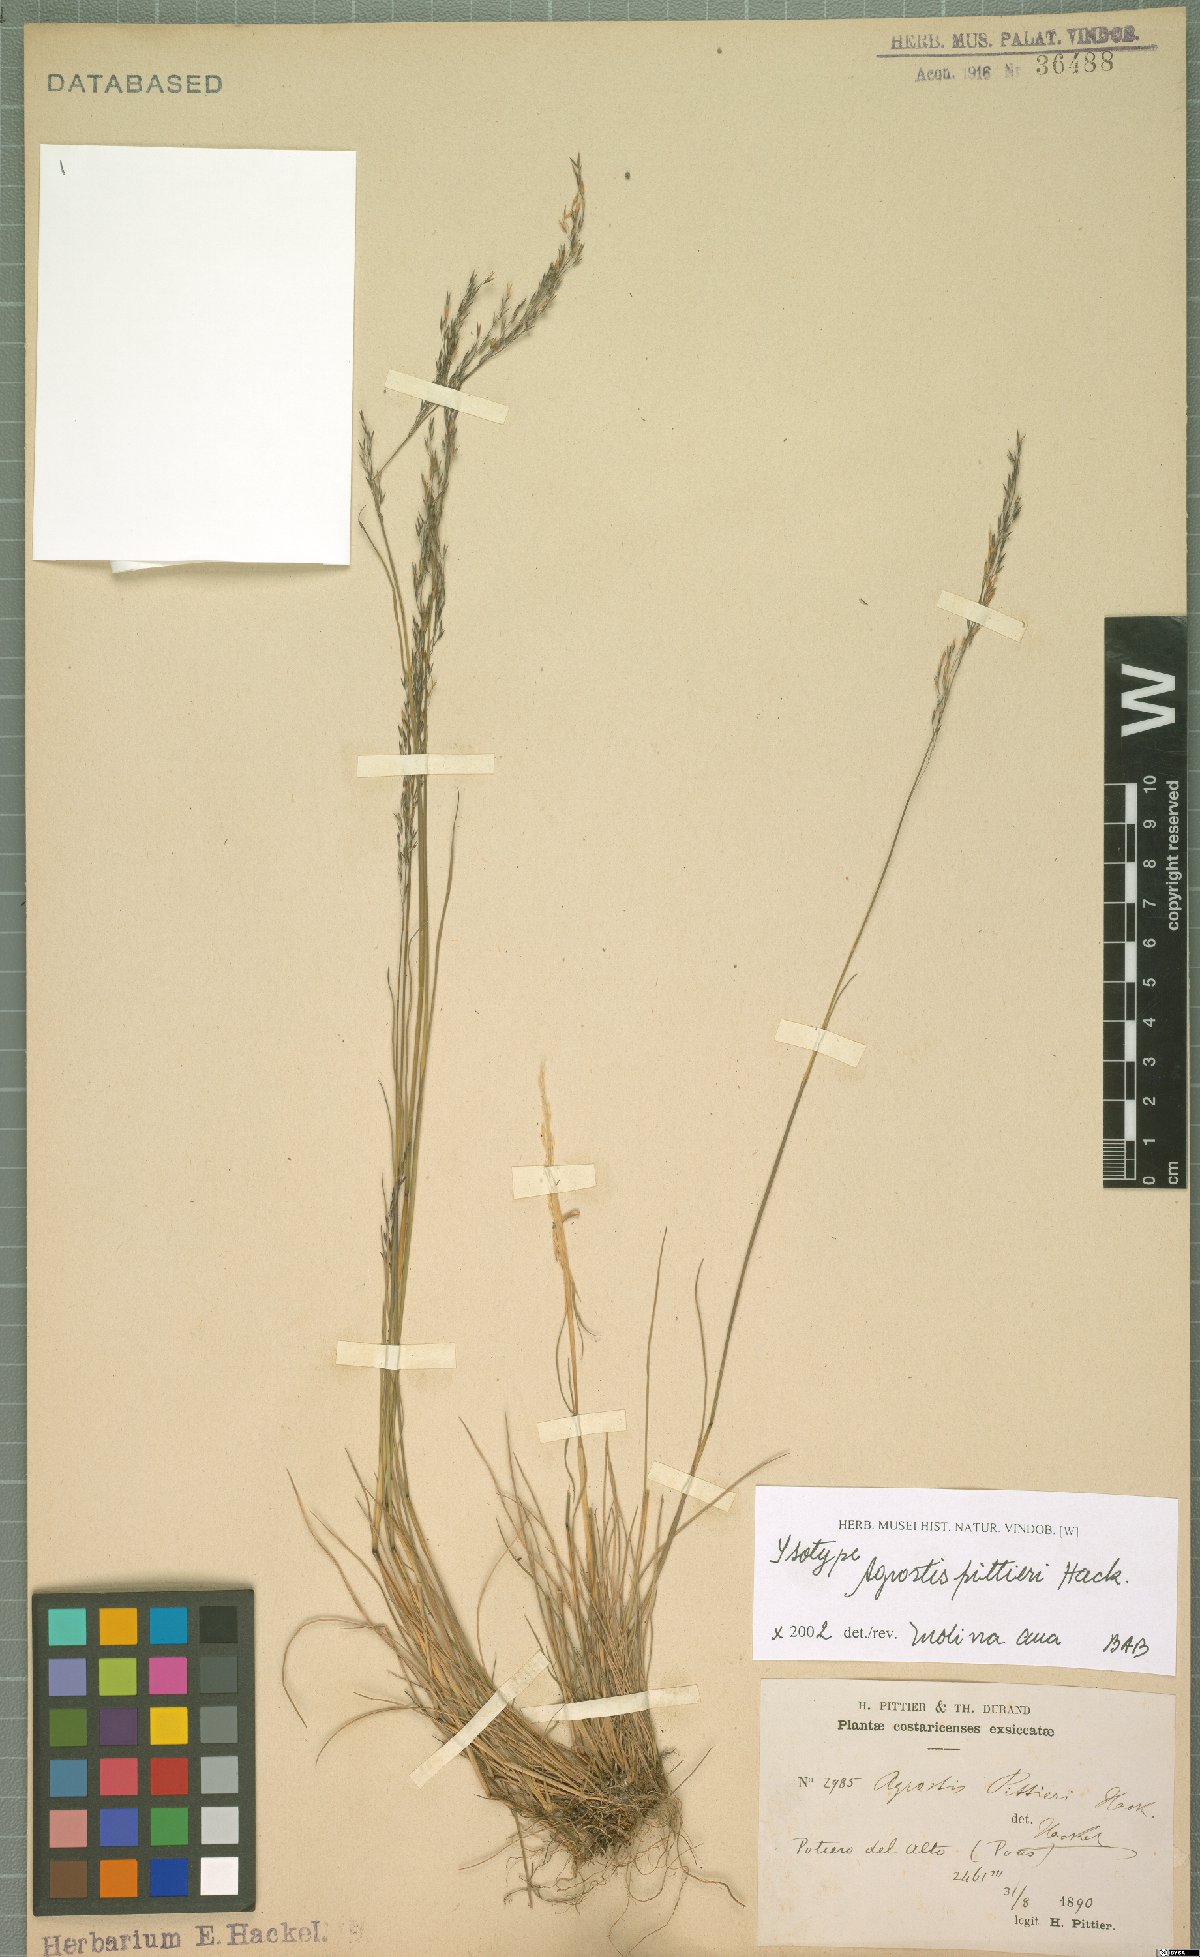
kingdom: Plantae
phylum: Tracheophyta
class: Liliopsida
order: Poales
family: Poaceae
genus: Agrostis
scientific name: Agrostis pittieri
